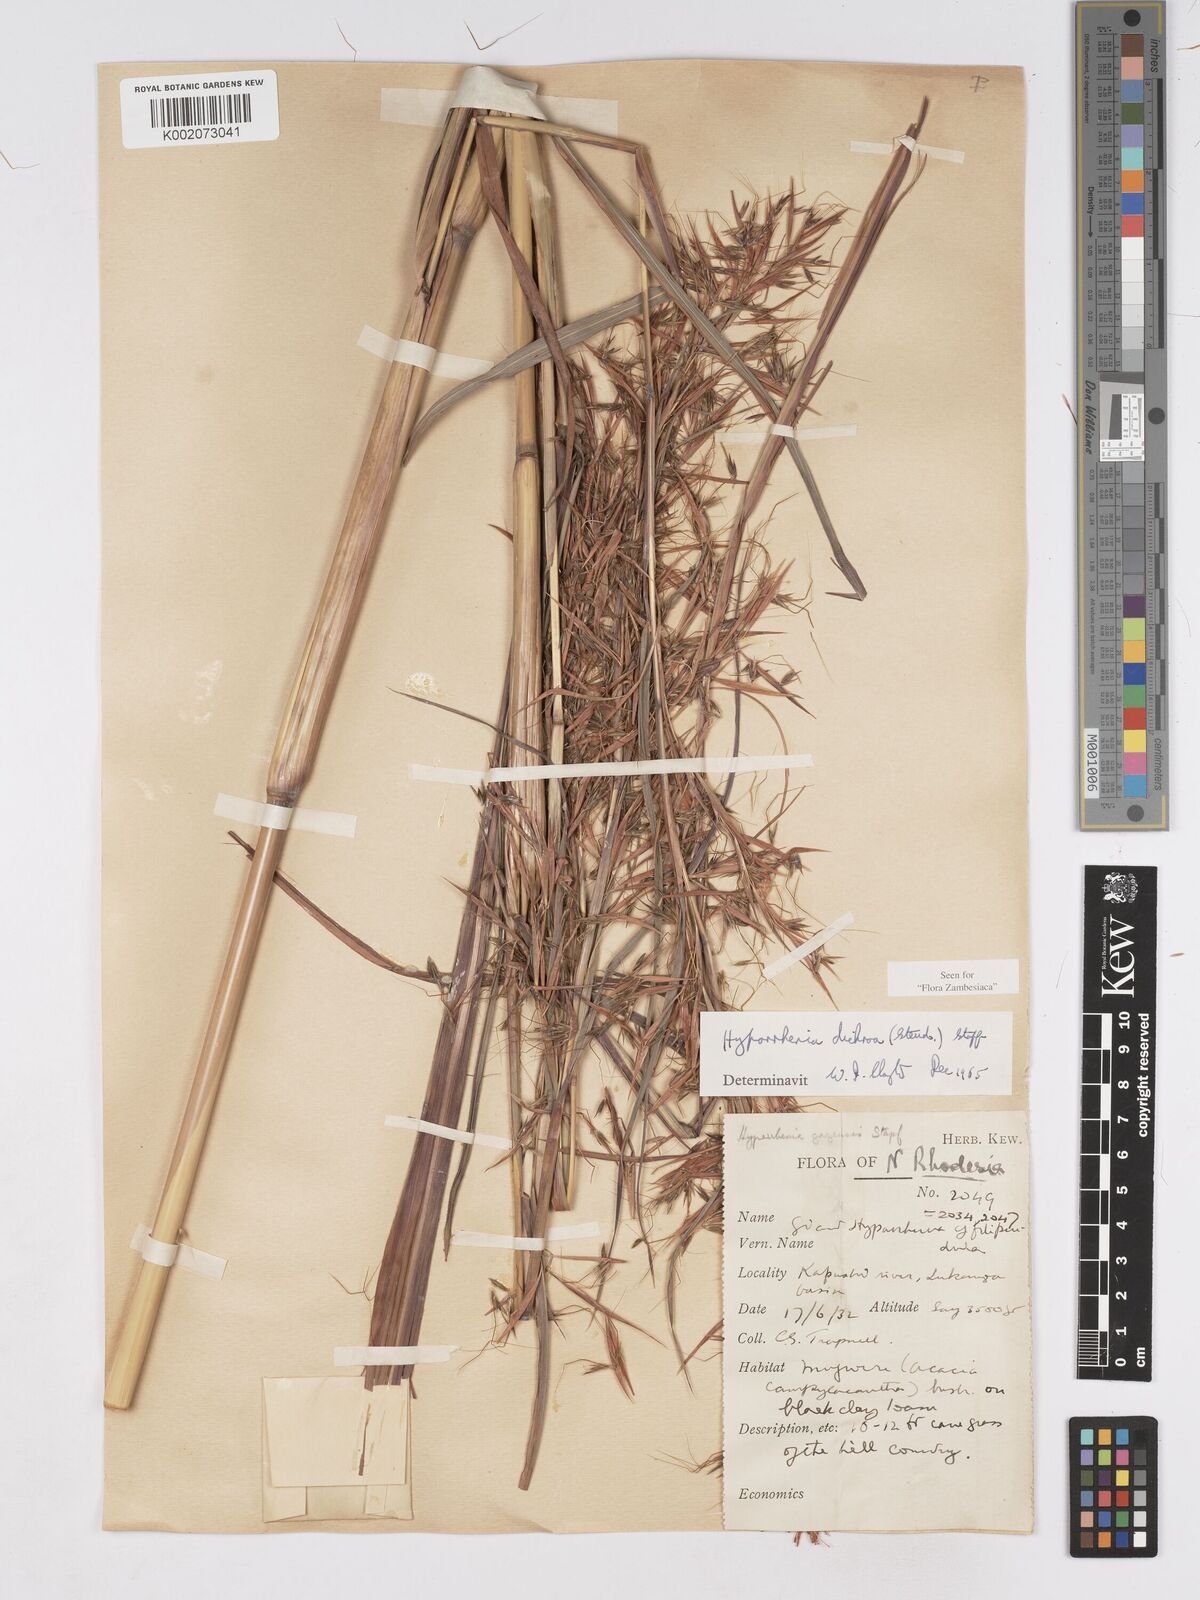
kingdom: Plantae
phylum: Tracheophyta
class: Liliopsida
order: Poales
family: Poaceae
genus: Hyparrhenia
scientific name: Hyparrhenia dichroa
